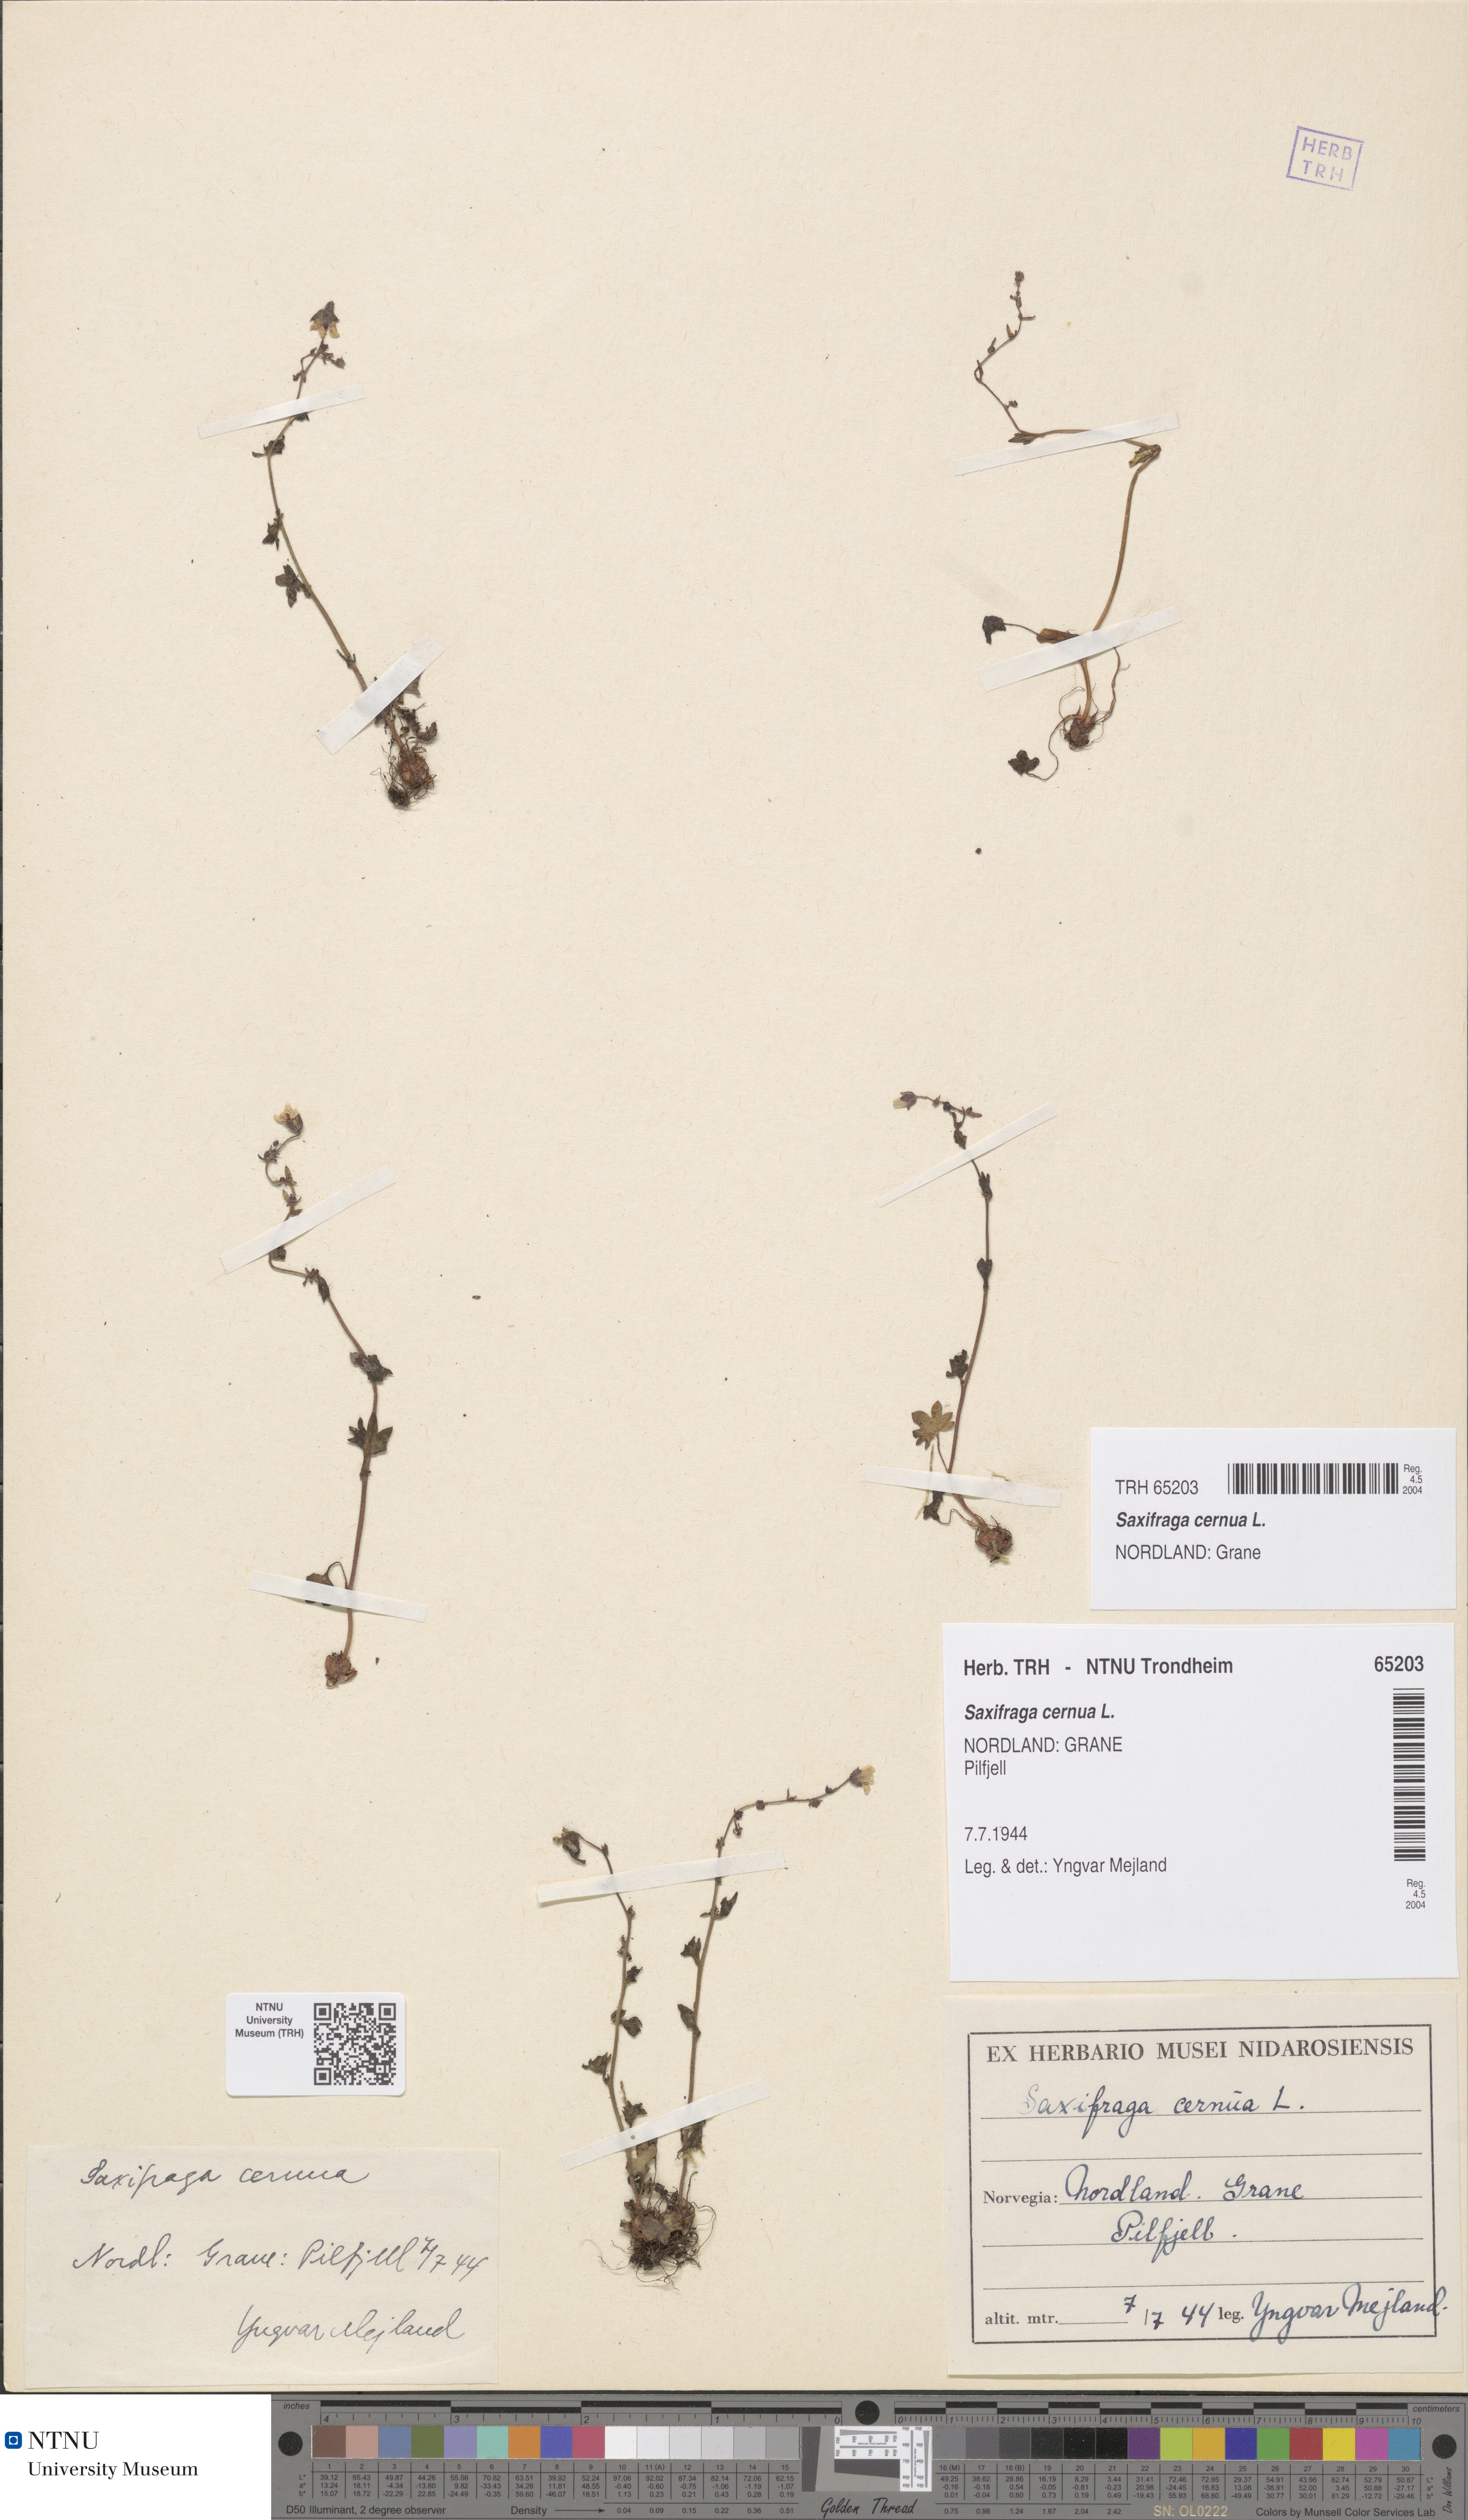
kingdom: Plantae
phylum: Tracheophyta
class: Magnoliopsida
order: Saxifragales
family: Saxifragaceae
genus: Saxifraga
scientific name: Saxifraga cernua
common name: Drooping saxifrage
